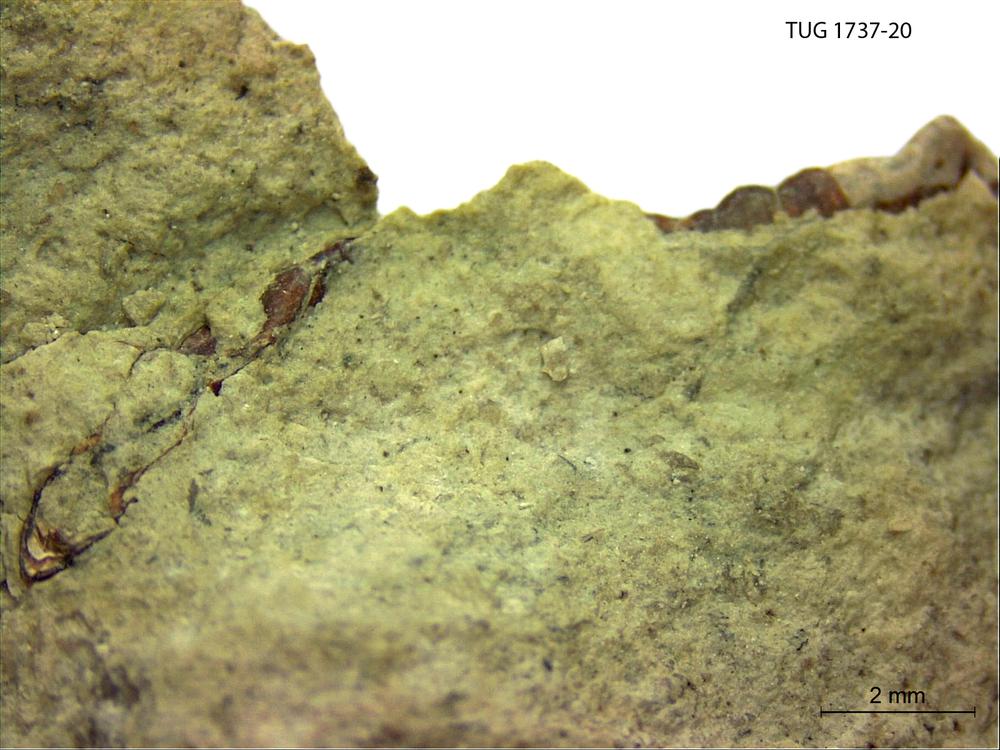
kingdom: Animalia
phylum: Cnidaria
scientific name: Cnidaria
